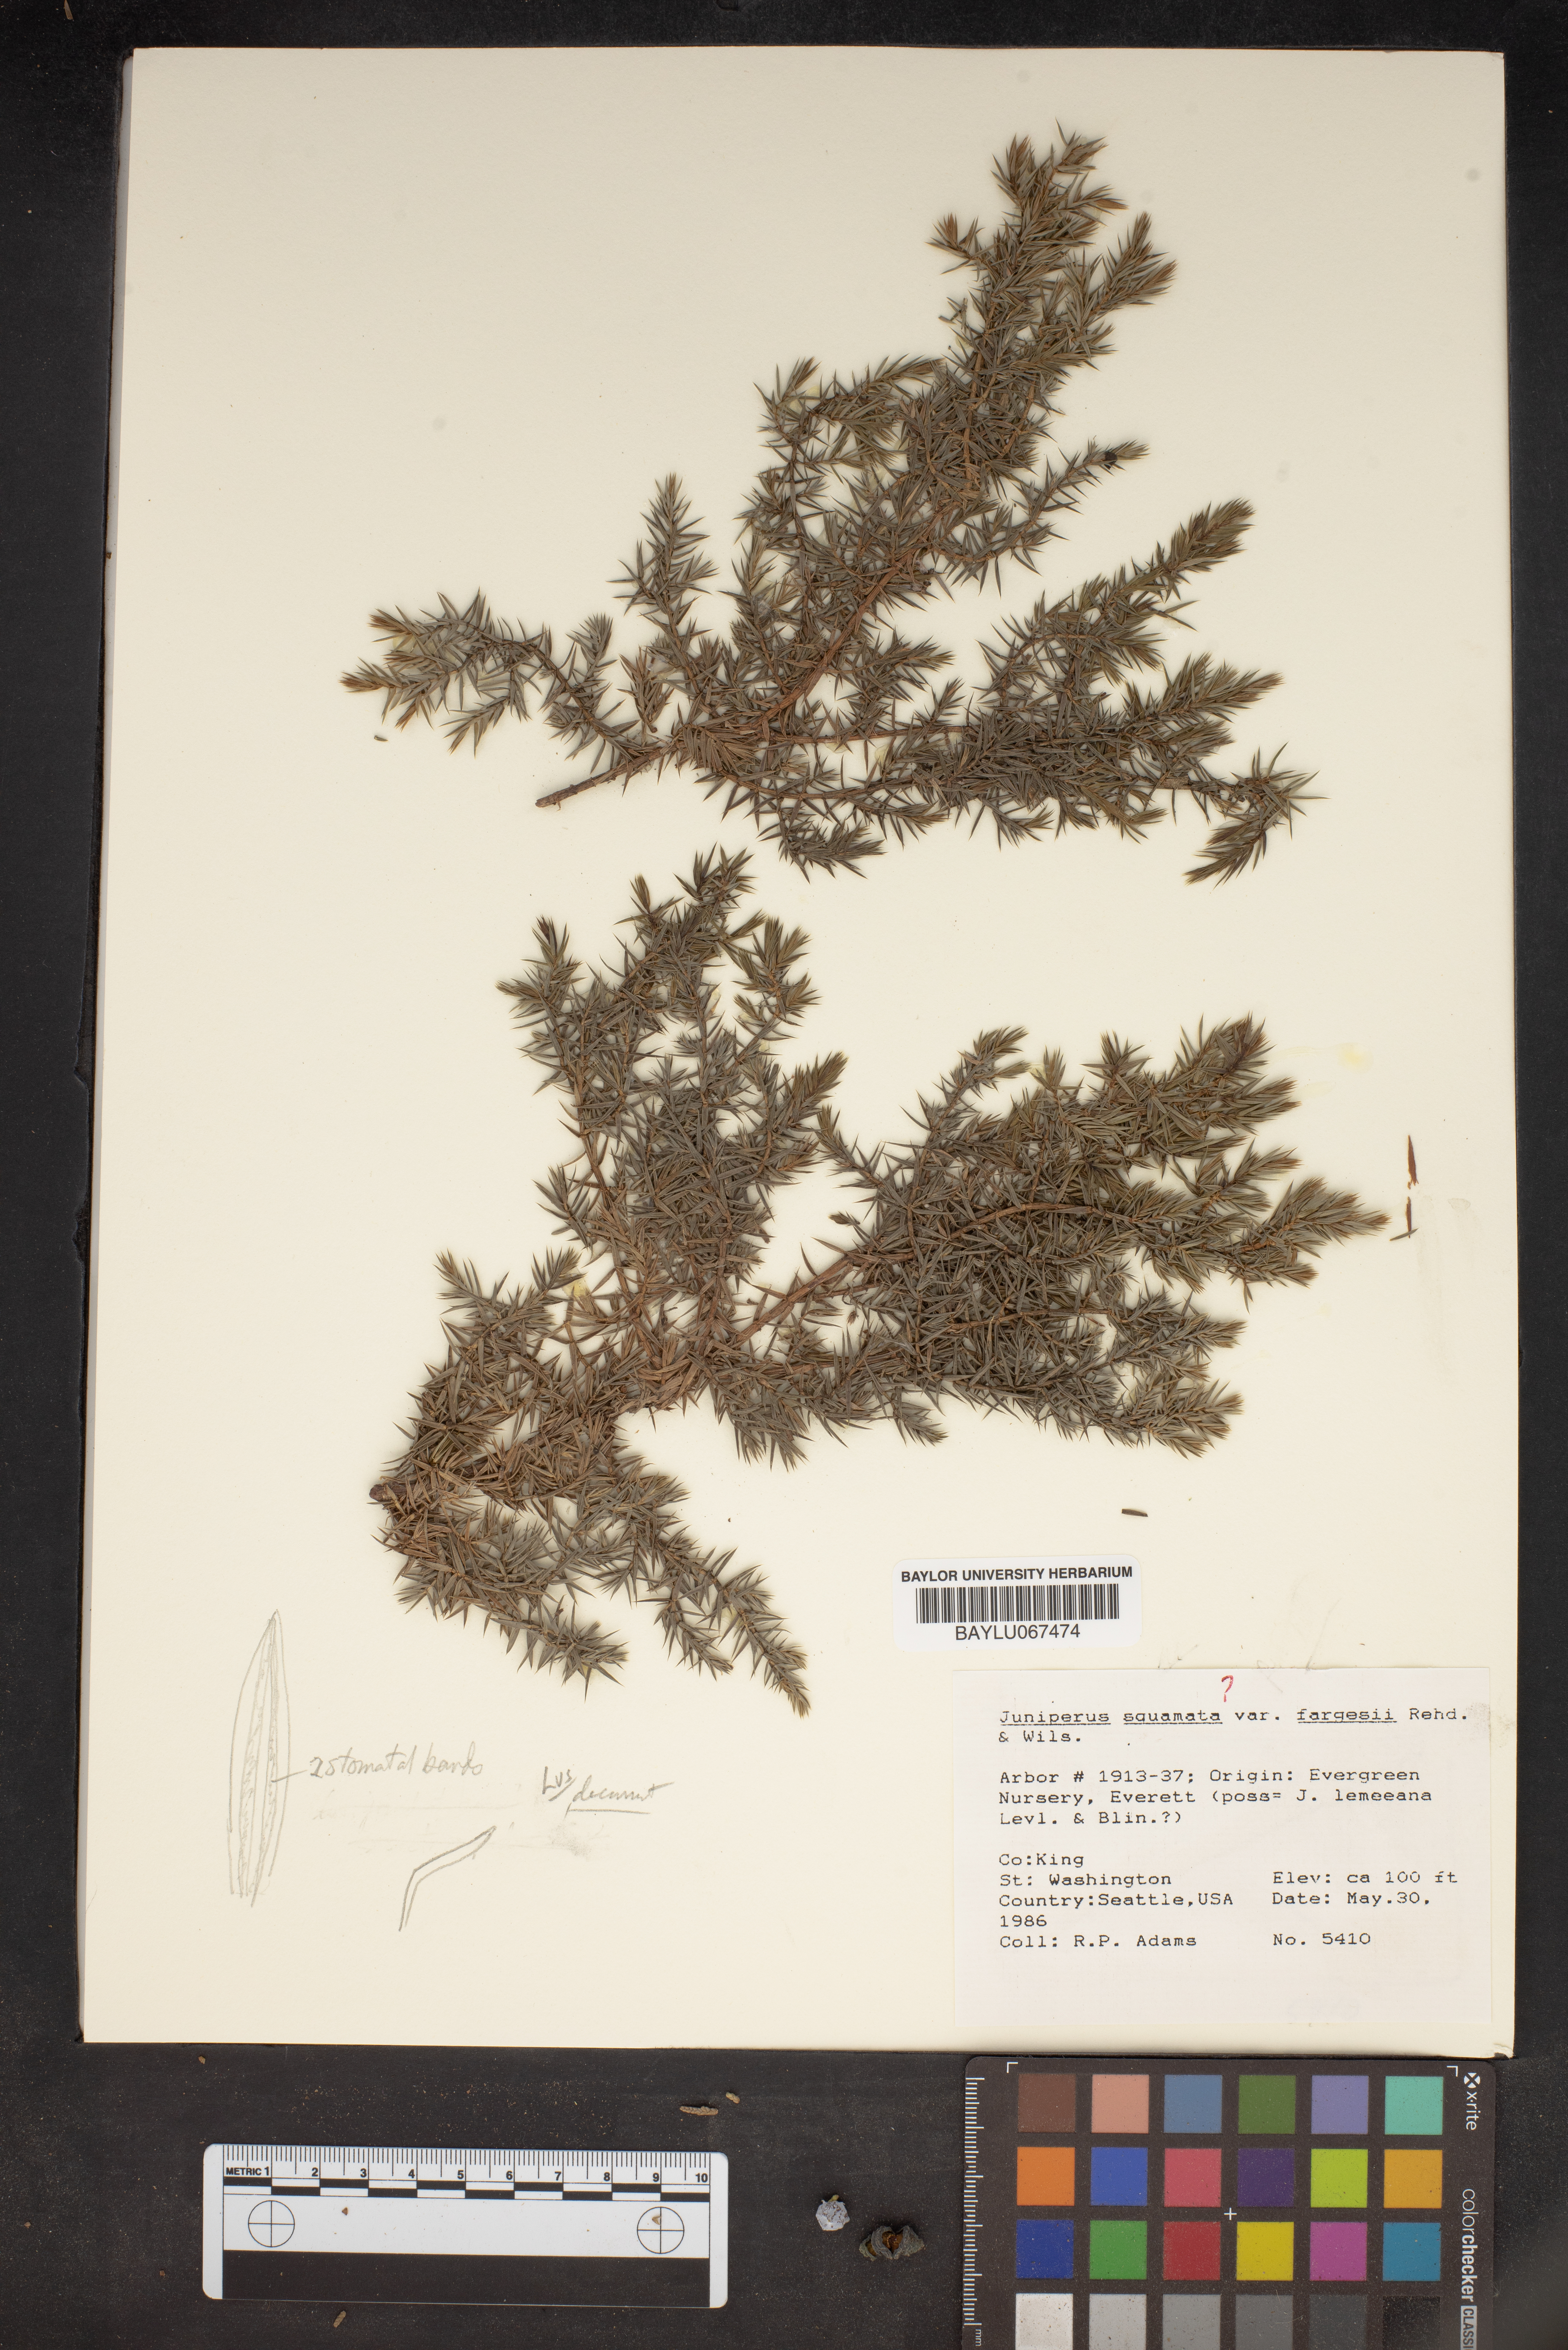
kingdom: Plantae
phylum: Tracheophyta
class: Pinopsida
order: Pinales
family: Cupressaceae
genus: Juniperus
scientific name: Juniperus squamata
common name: Flaky juniper
